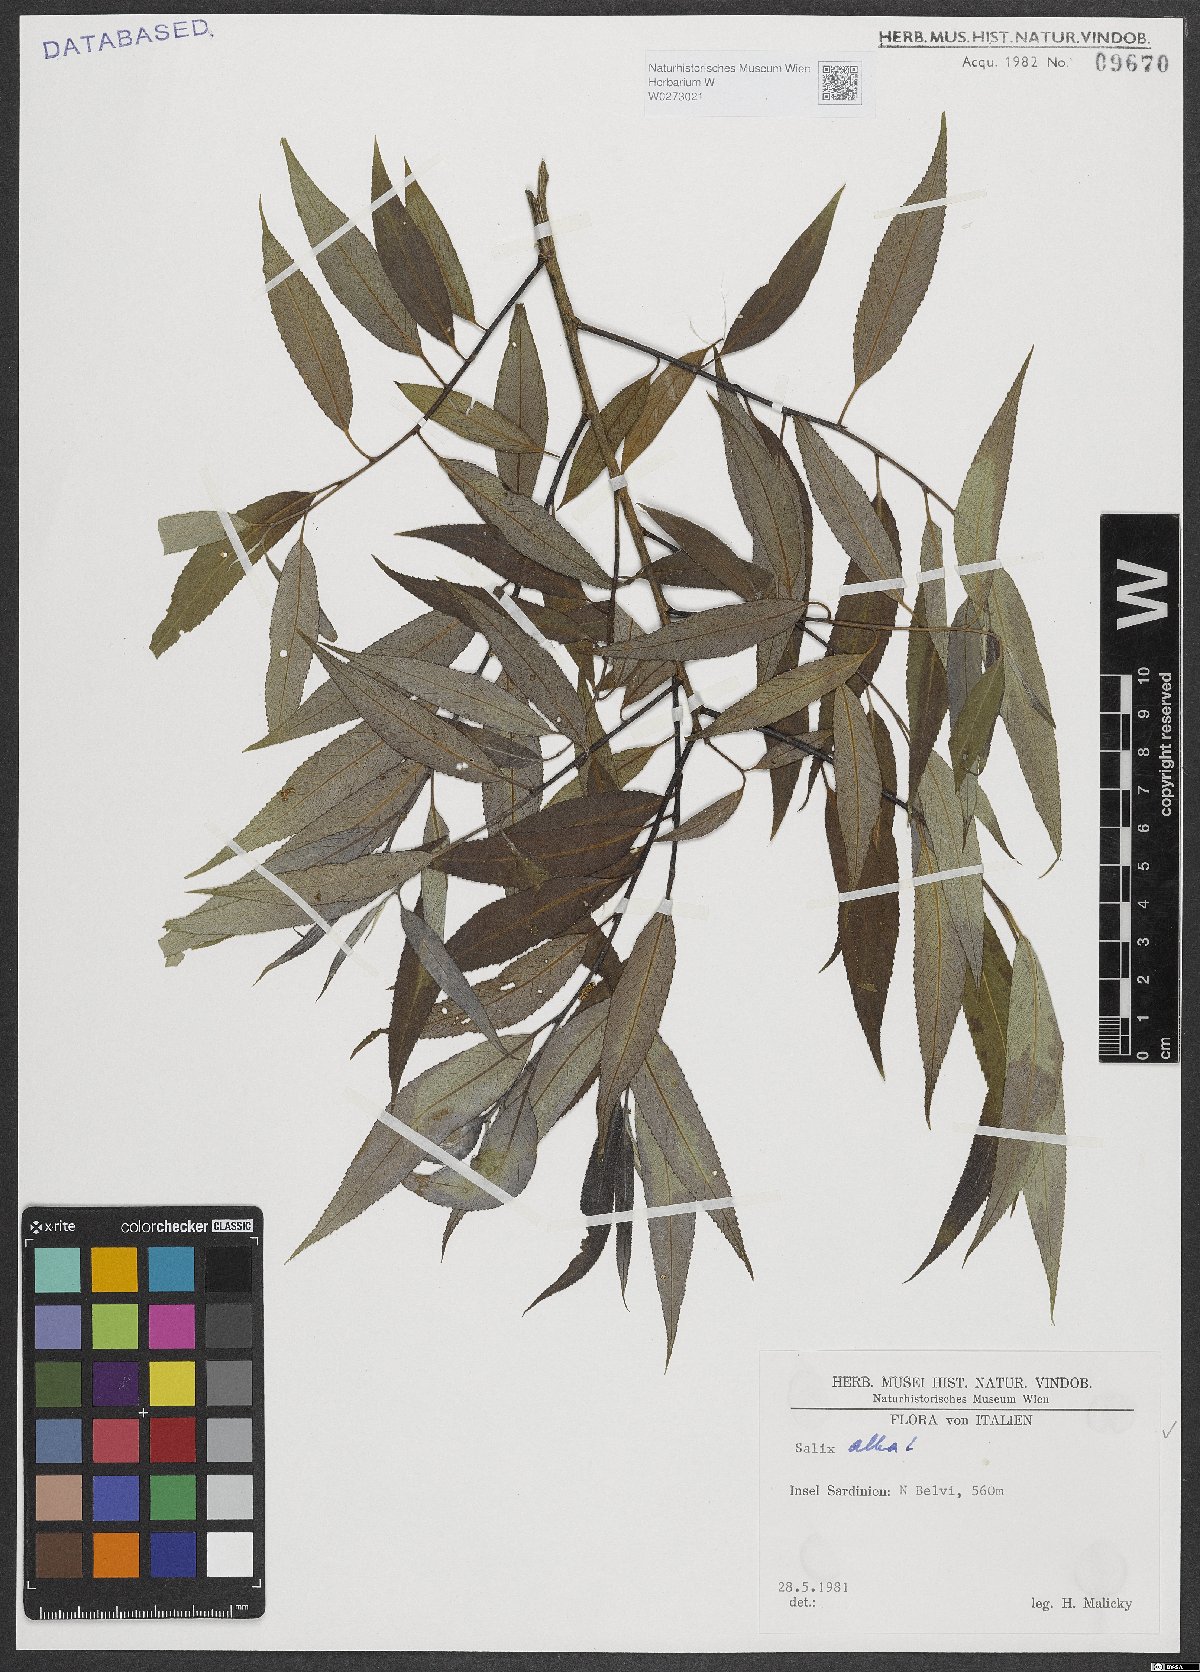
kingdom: Plantae
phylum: Tracheophyta
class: Magnoliopsida
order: Malpighiales
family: Salicaceae
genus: Salix
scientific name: Salix alba
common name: White willow
